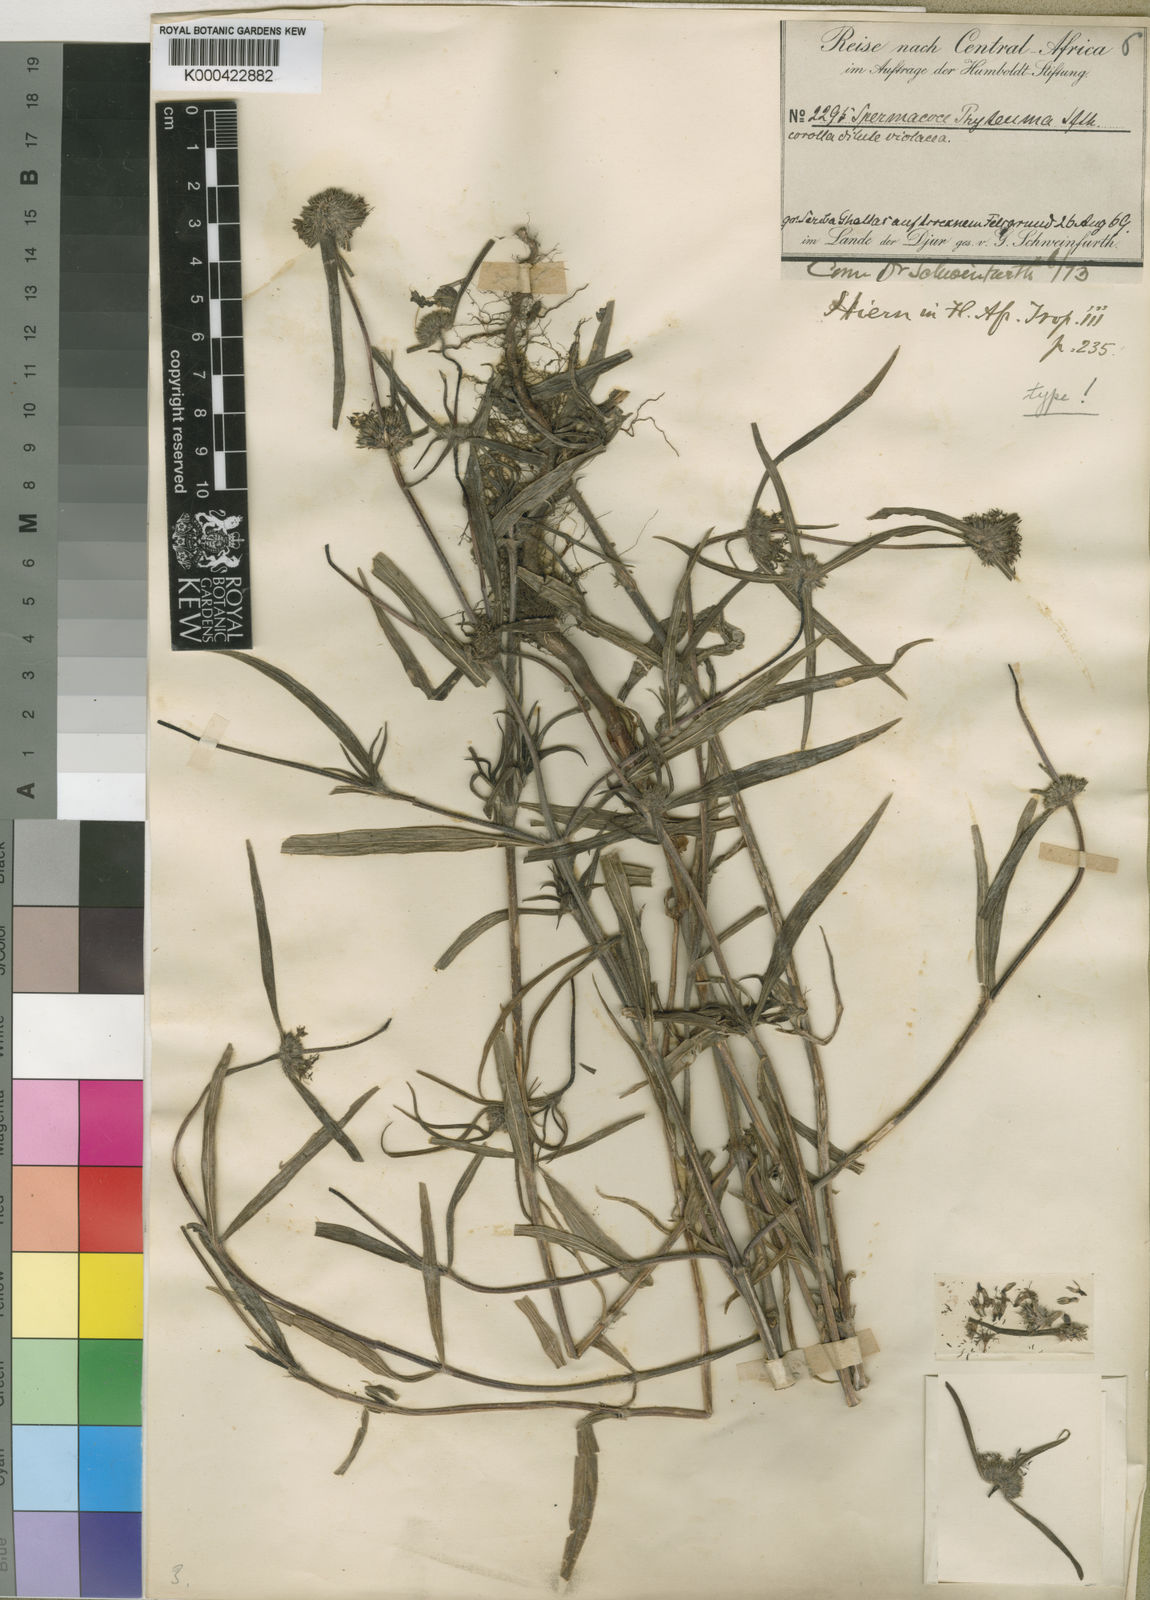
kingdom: Plantae
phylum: Tracheophyta
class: Magnoliopsida
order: Gentianales
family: Rubiaceae
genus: Spermacoce
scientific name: Spermacoce phyteuma
